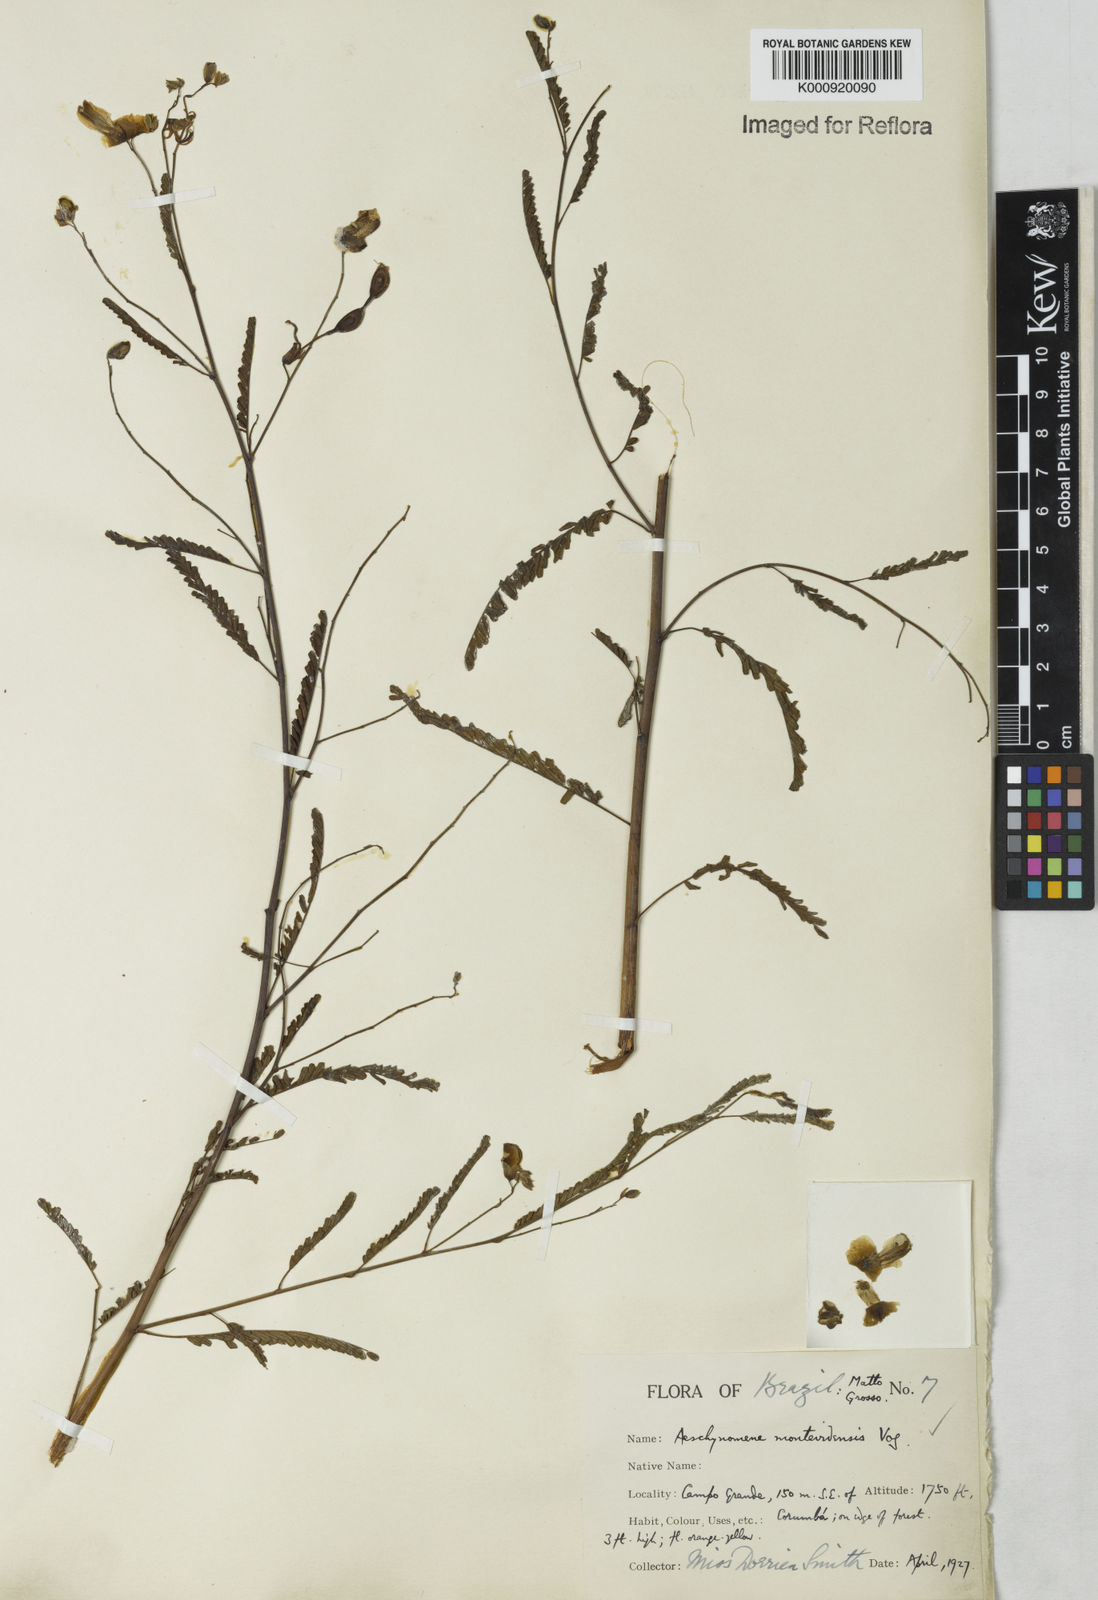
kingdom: Plantae
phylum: Tracheophyta
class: Magnoliopsida
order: Fabales
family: Fabaceae
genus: Aeschynomene
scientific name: Aeschynomene montevidensis
